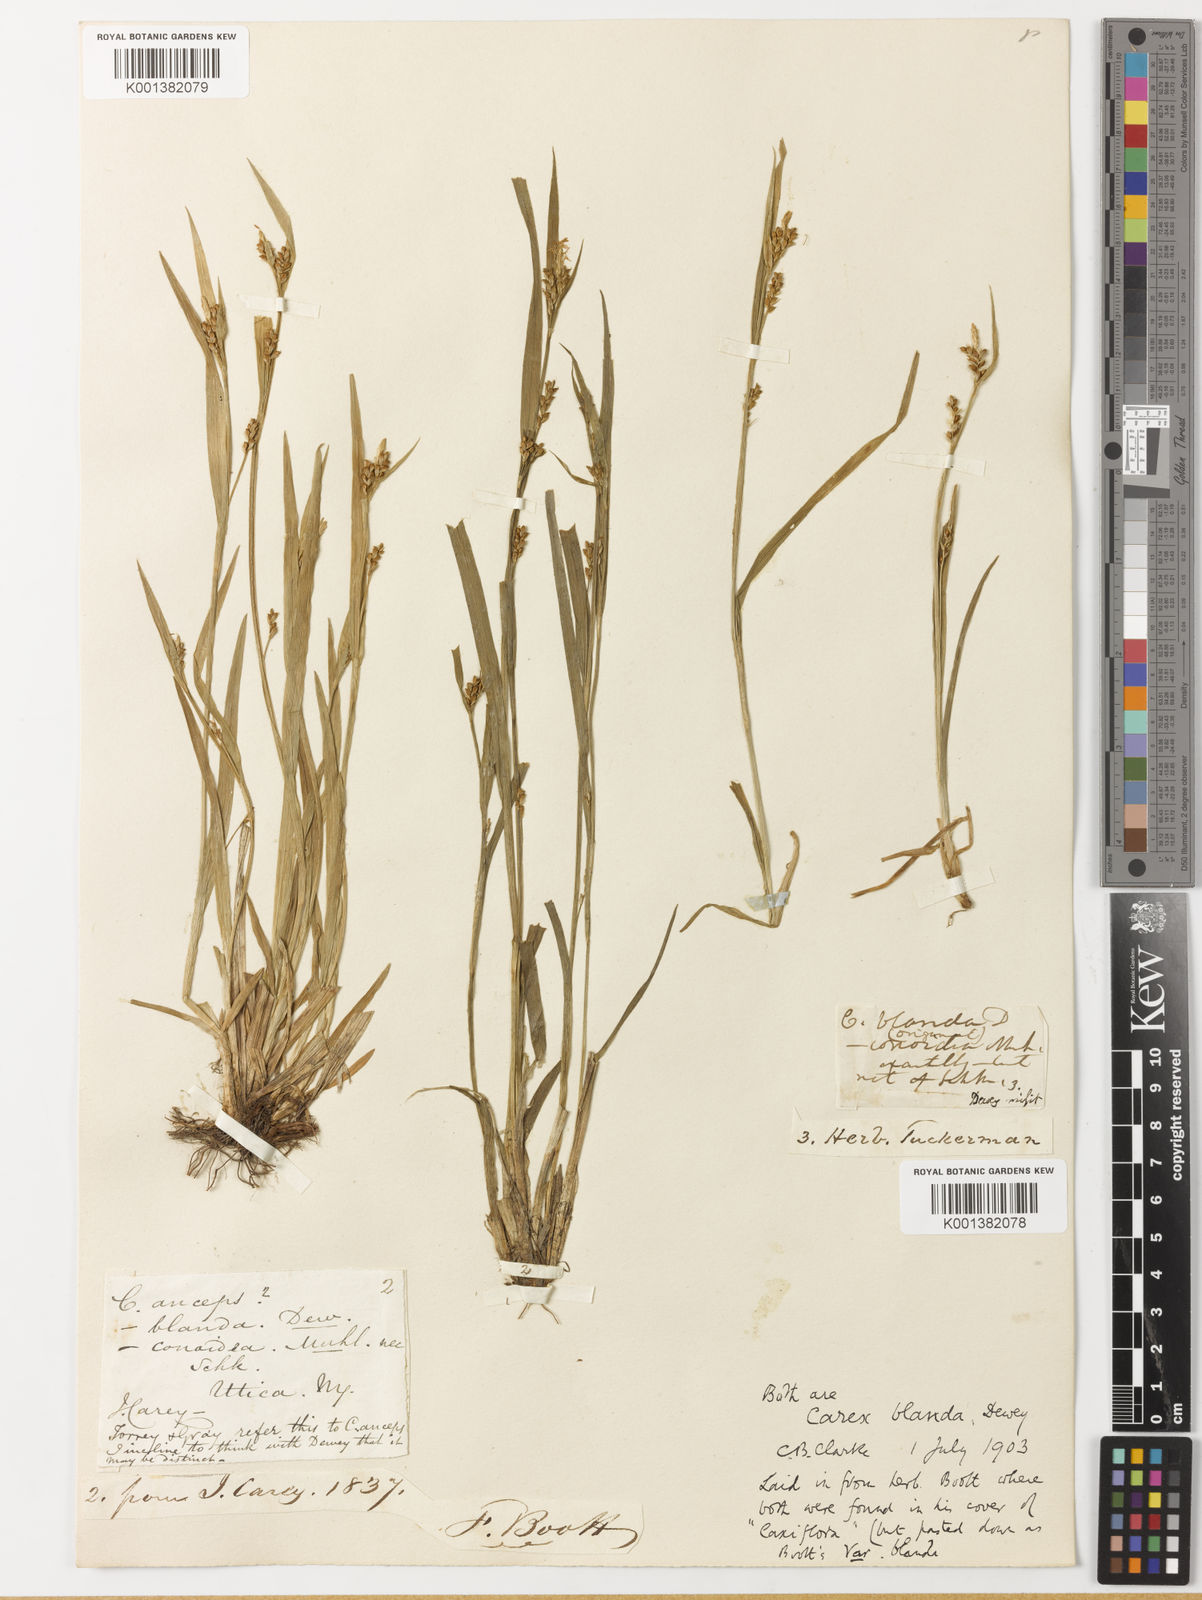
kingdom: Plantae
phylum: Tracheophyta
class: Liliopsida
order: Poales
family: Cyperaceae
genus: Carex
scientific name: Carex blanda
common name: Bland sedge
